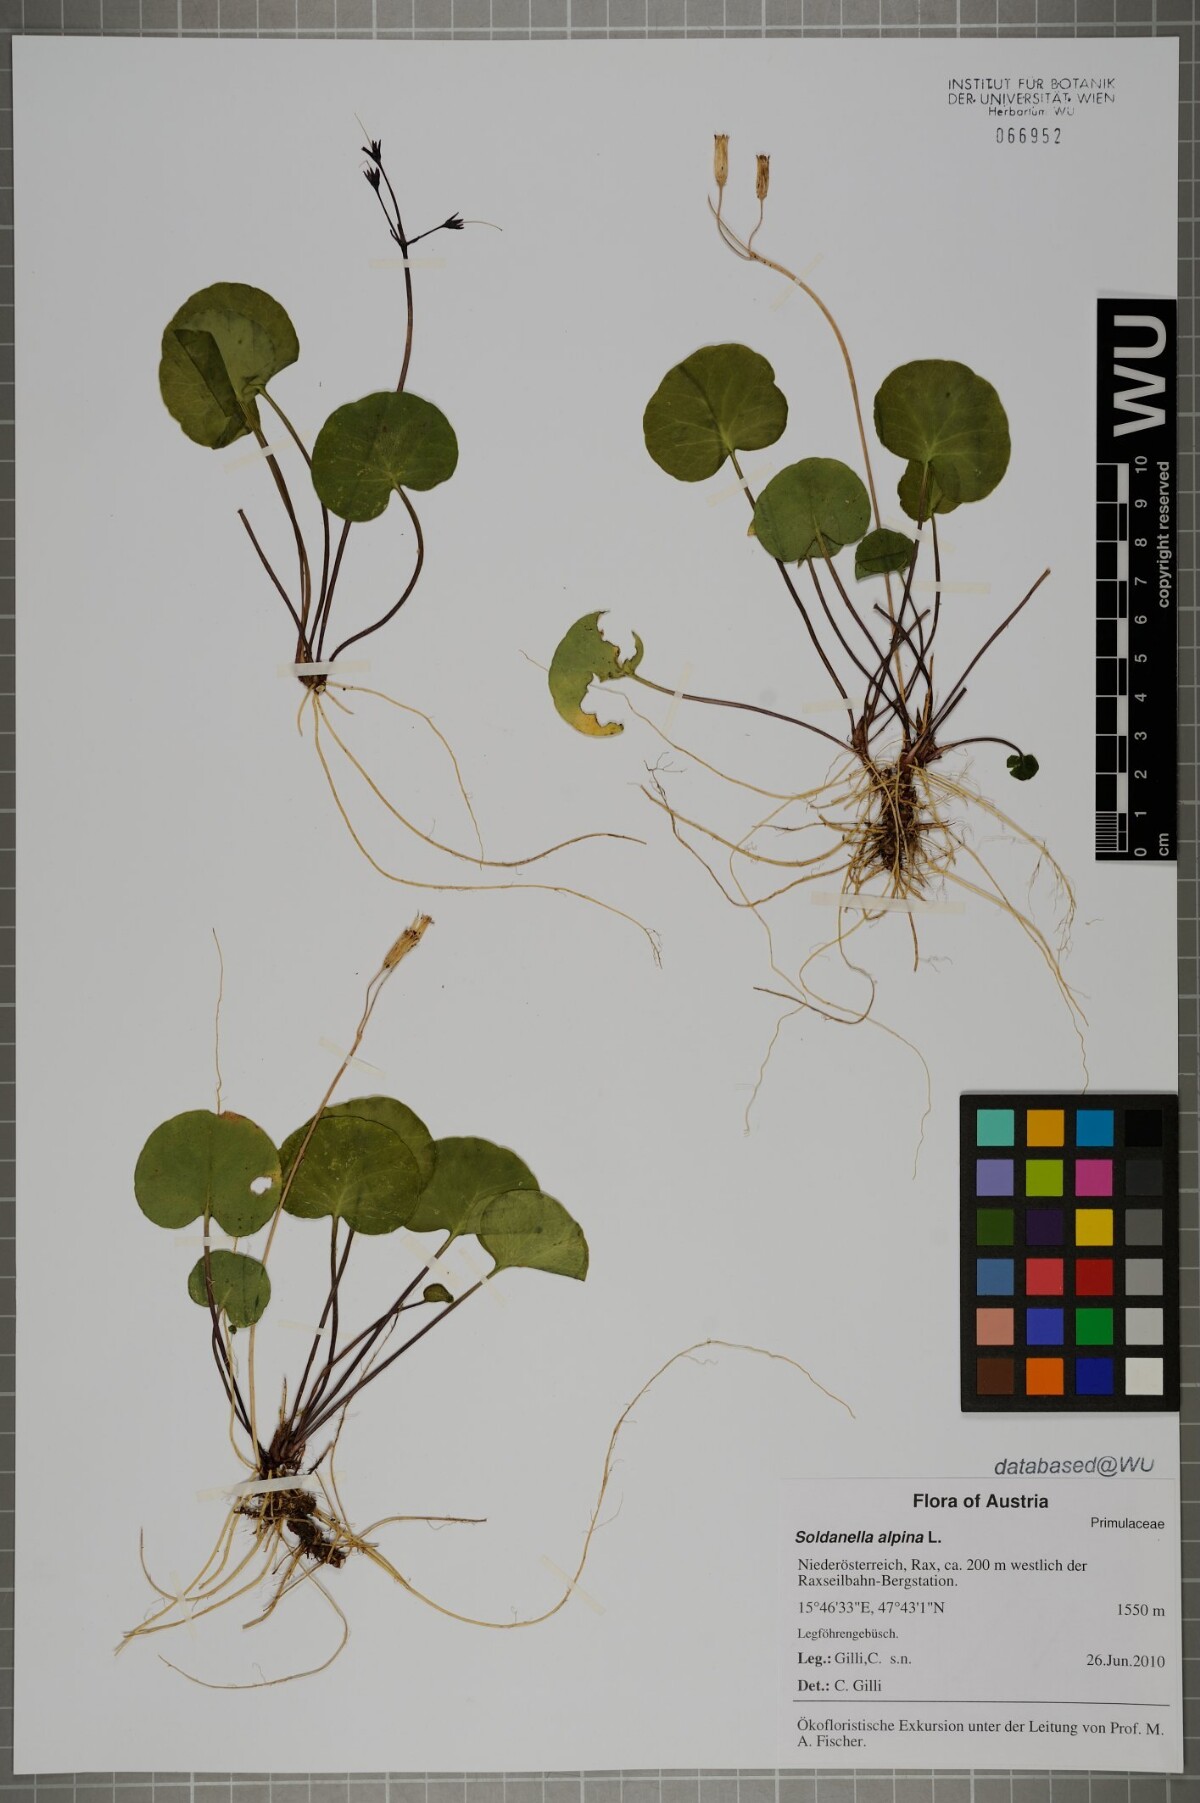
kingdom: Plantae
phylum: Tracheophyta
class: Magnoliopsida
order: Ericales
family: Primulaceae
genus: Soldanella
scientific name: Soldanella alpina
